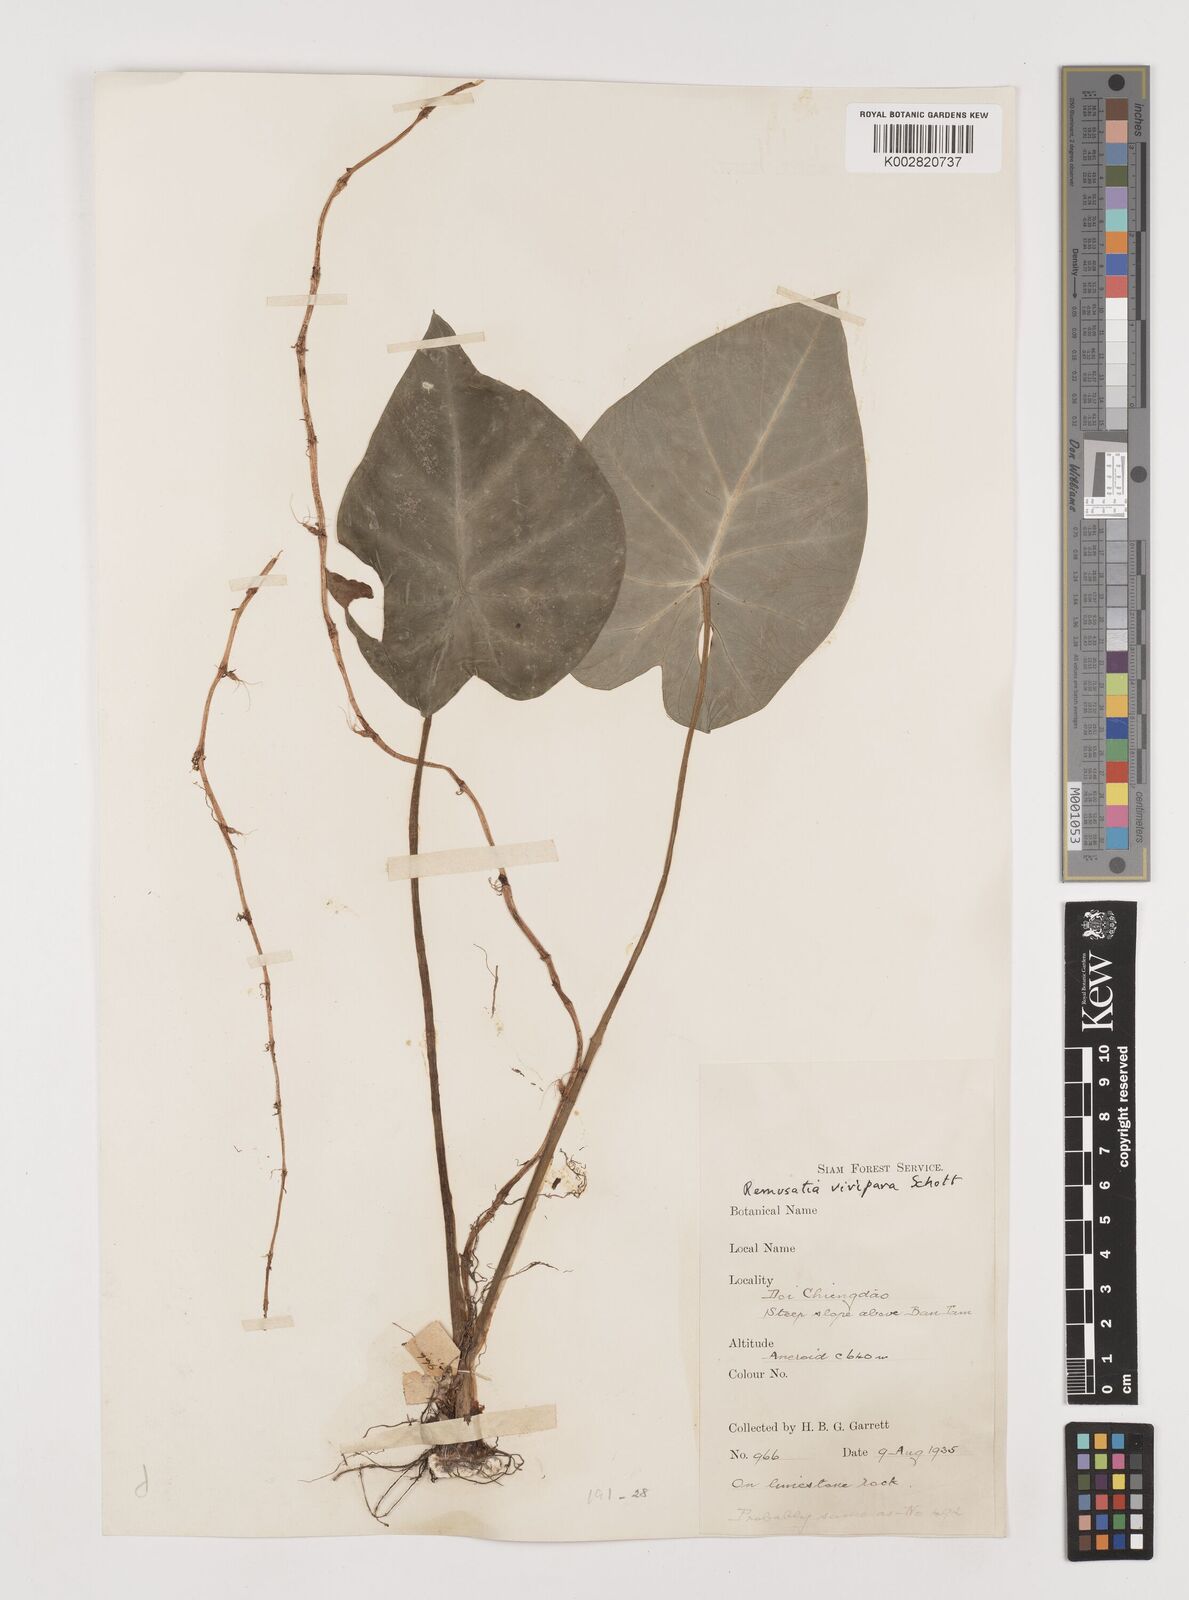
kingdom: Plantae
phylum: Tracheophyta
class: Liliopsida
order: Alismatales
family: Araceae
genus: Remusatia
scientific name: Remusatia vivipara
